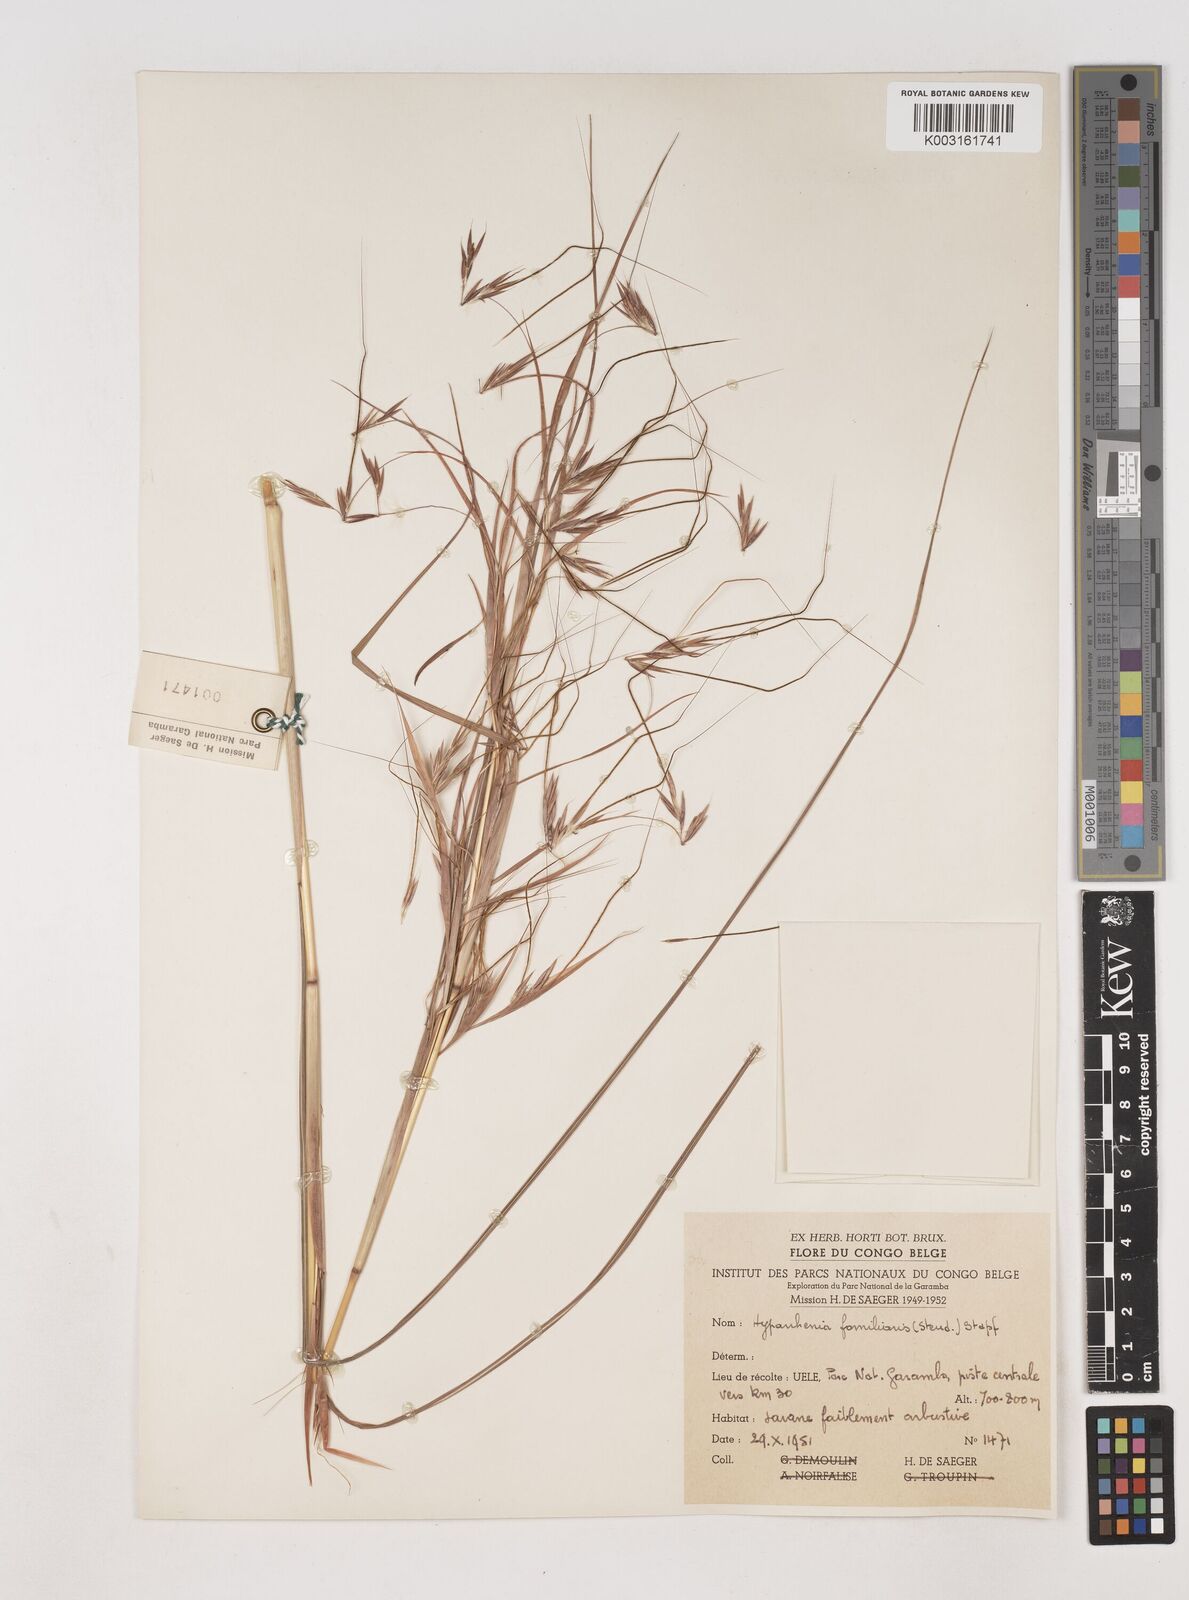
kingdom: Plantae
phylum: Tracheophyta
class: Liliopsida
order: Poales
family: Poaceae
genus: Hyparrhenia
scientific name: Hyparrhenia familiaris
